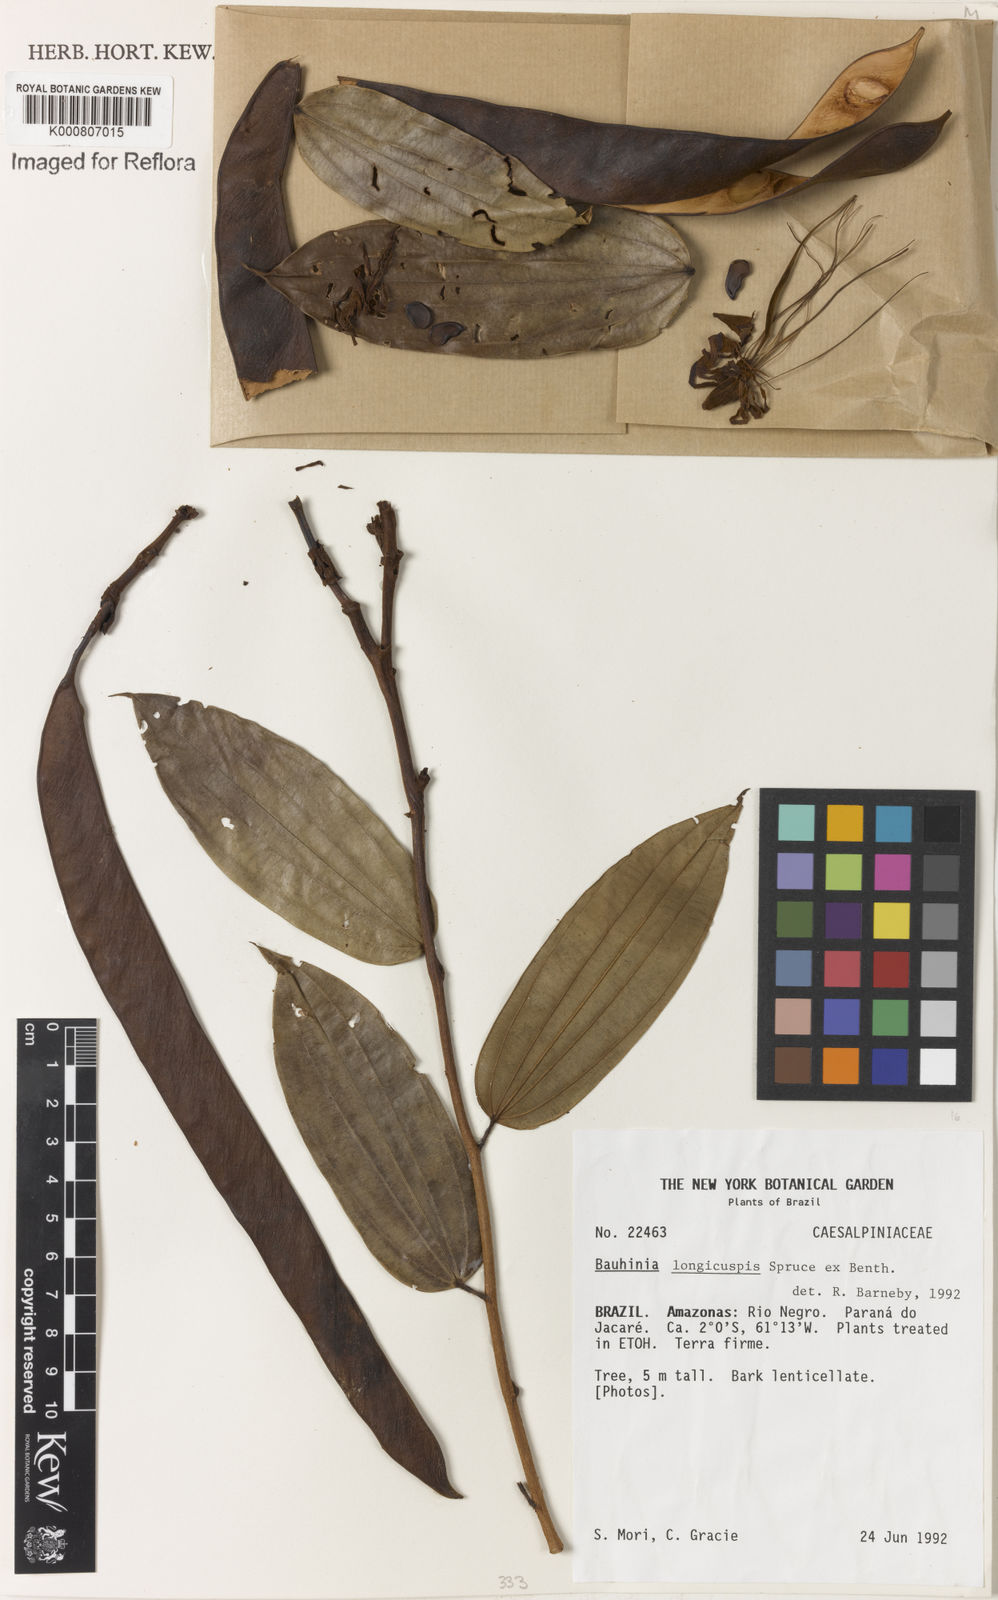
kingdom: Plantae
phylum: Tracheophyta
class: Magnoliopsida
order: Fabales
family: Fabaceae
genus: Bauhinia
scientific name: Bauhinia longicuspis
